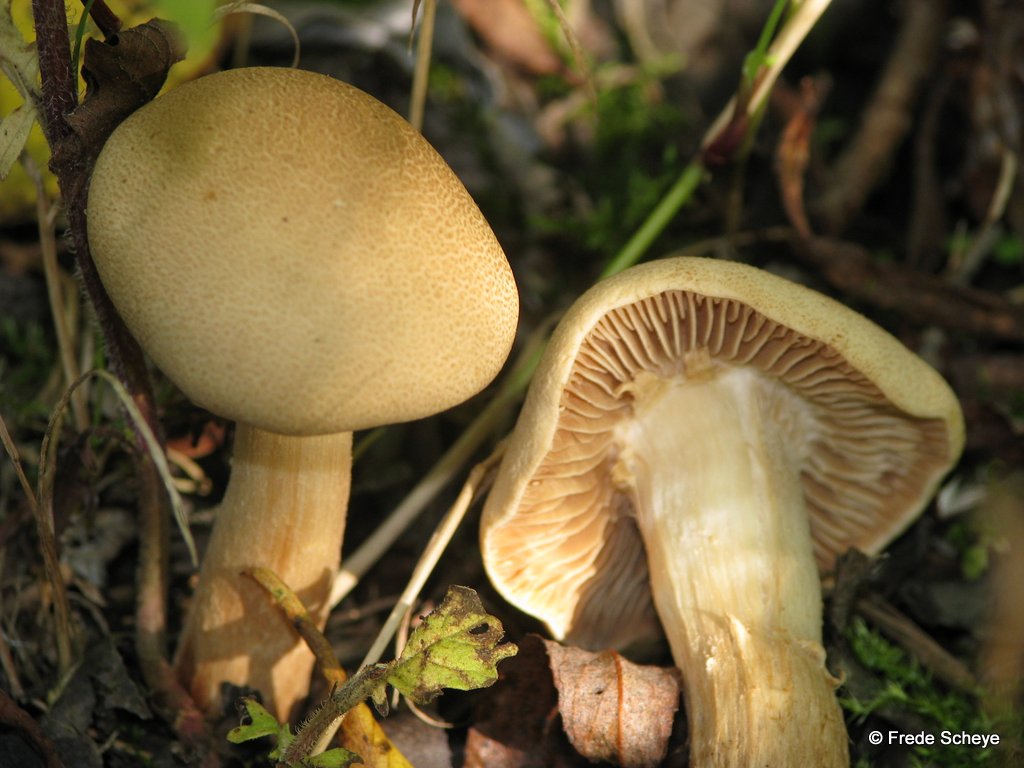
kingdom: Fungi
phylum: Basidiomycota
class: Agaricomycetes
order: Agaricales
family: Hymenogastraceae
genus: Hebeloma
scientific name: Hebeloma odoratissimum
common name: filtet tåreblad
